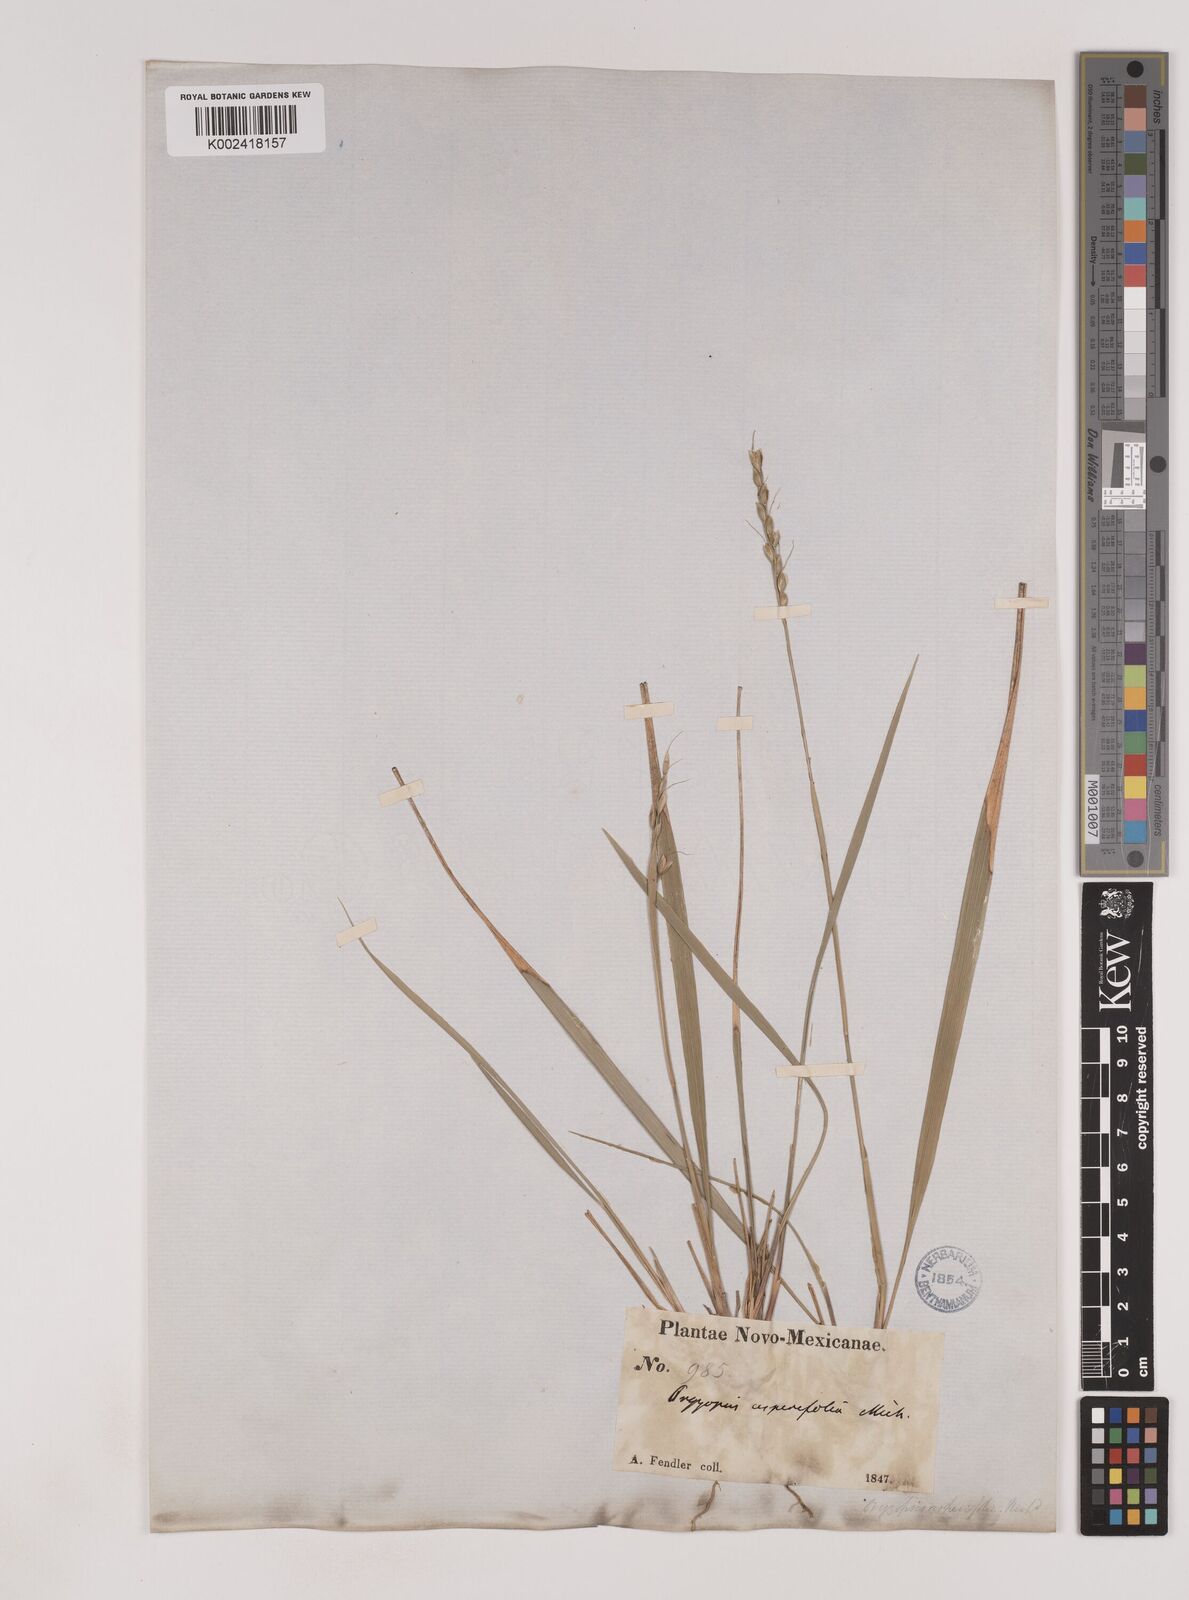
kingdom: Plantae
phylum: Tracheophyta
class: Liliopsida
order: Poales
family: Poaceae
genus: Oryzopsis
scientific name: Oryzopsis asperifolia
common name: Rough-leaved mountain rice
